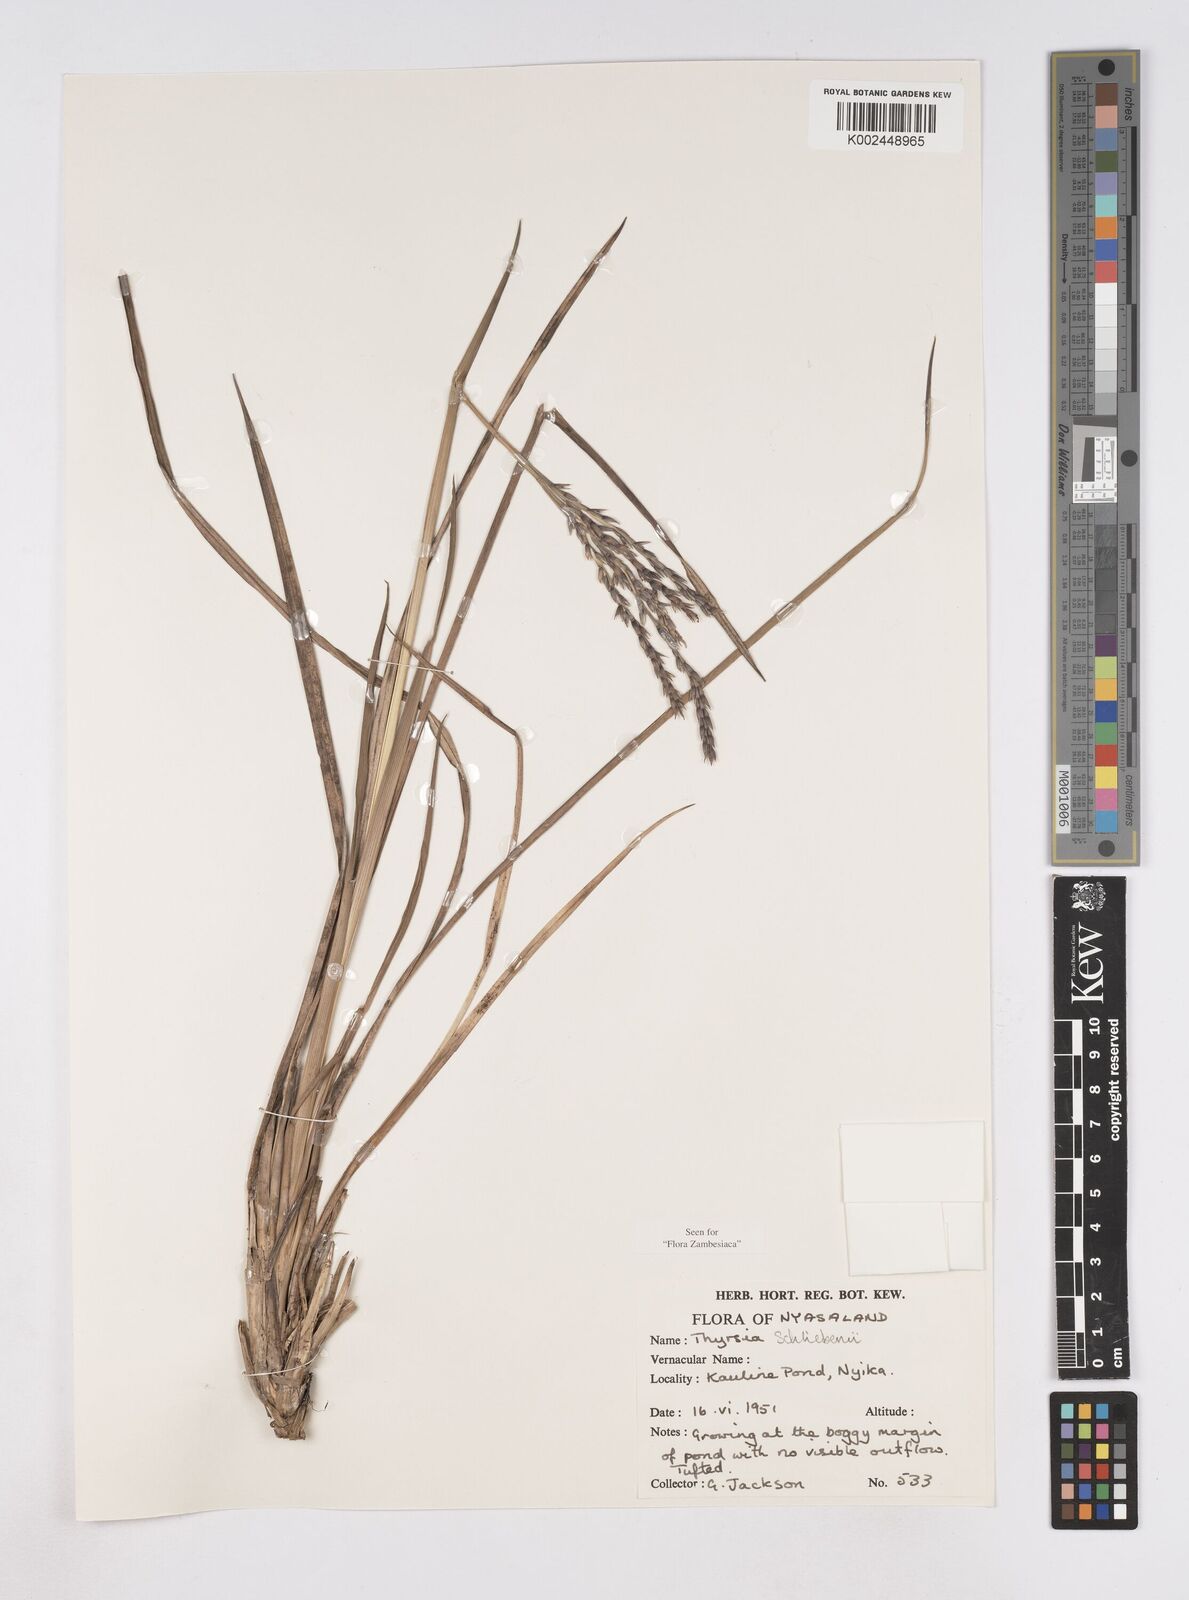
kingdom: Plantae
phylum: Tracheophyta
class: Liliopsida
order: Poales
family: Poaceae
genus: Thyrsia
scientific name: Thyrsia schliebenii
